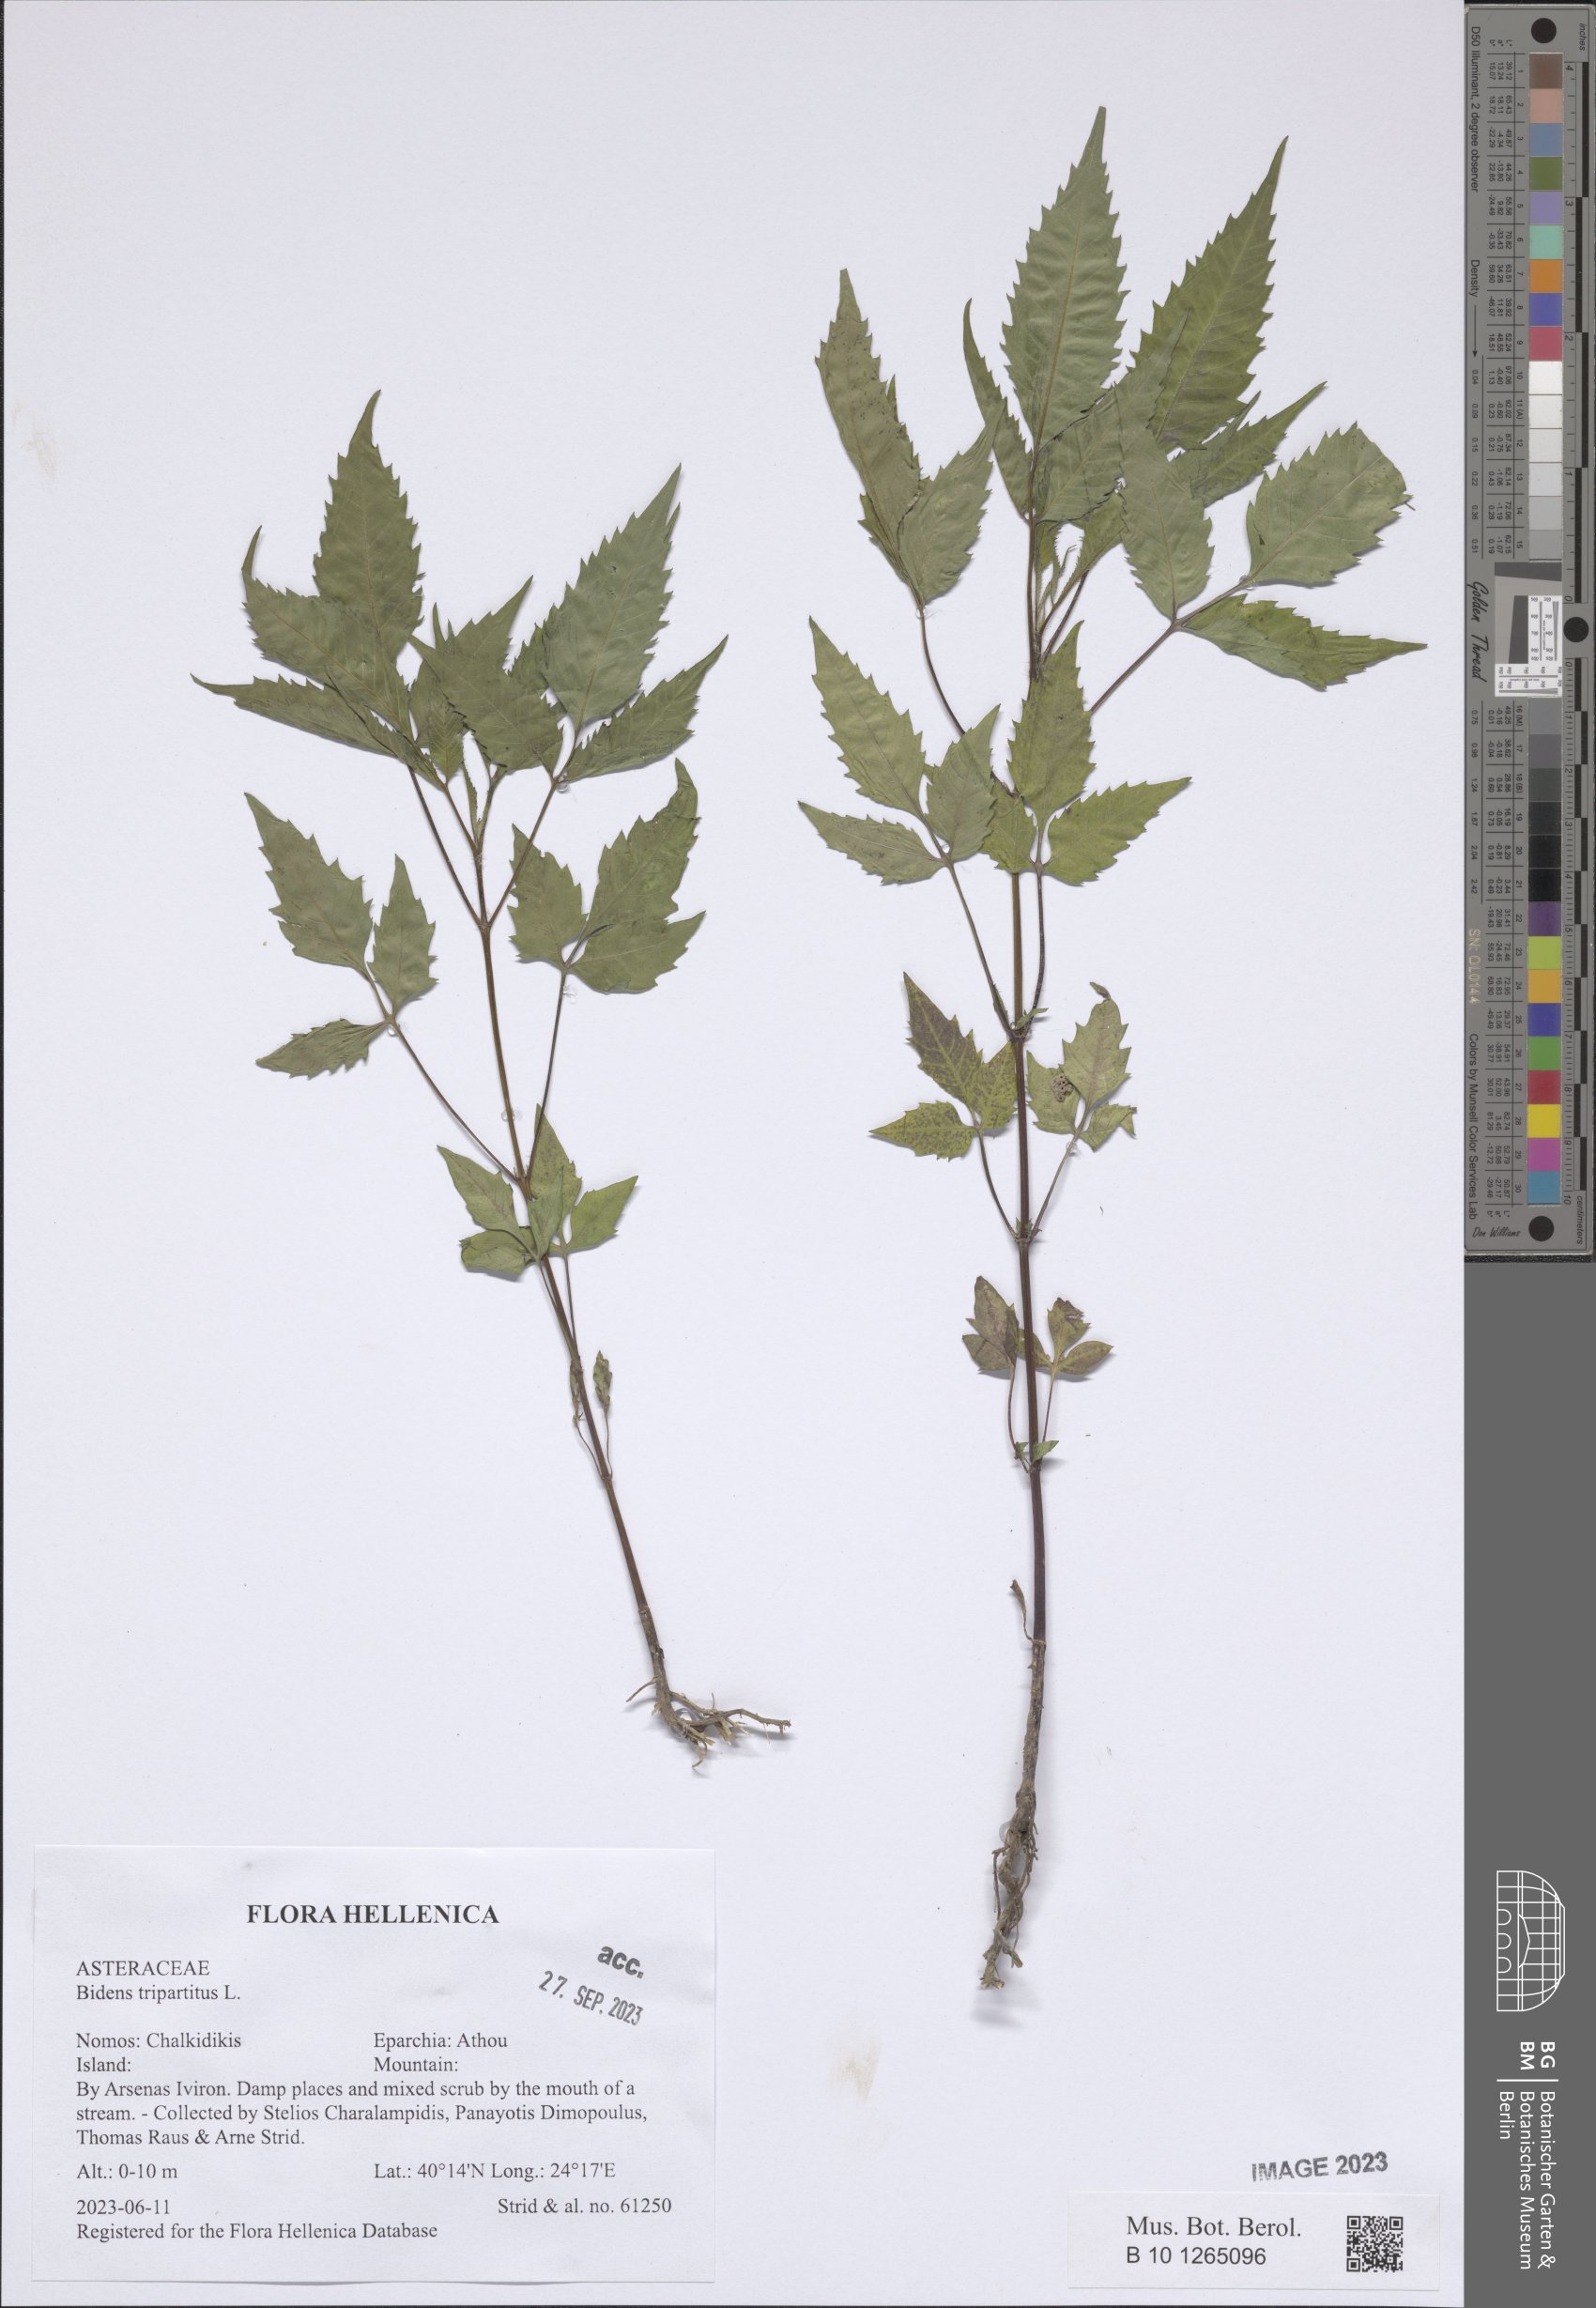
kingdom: Plantae
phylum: Tracheophyta
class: Magnoliopsida
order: Asterales
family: Asteraceae
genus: Bidens
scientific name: Bidens tripartita
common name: Trifid bur-marigold
